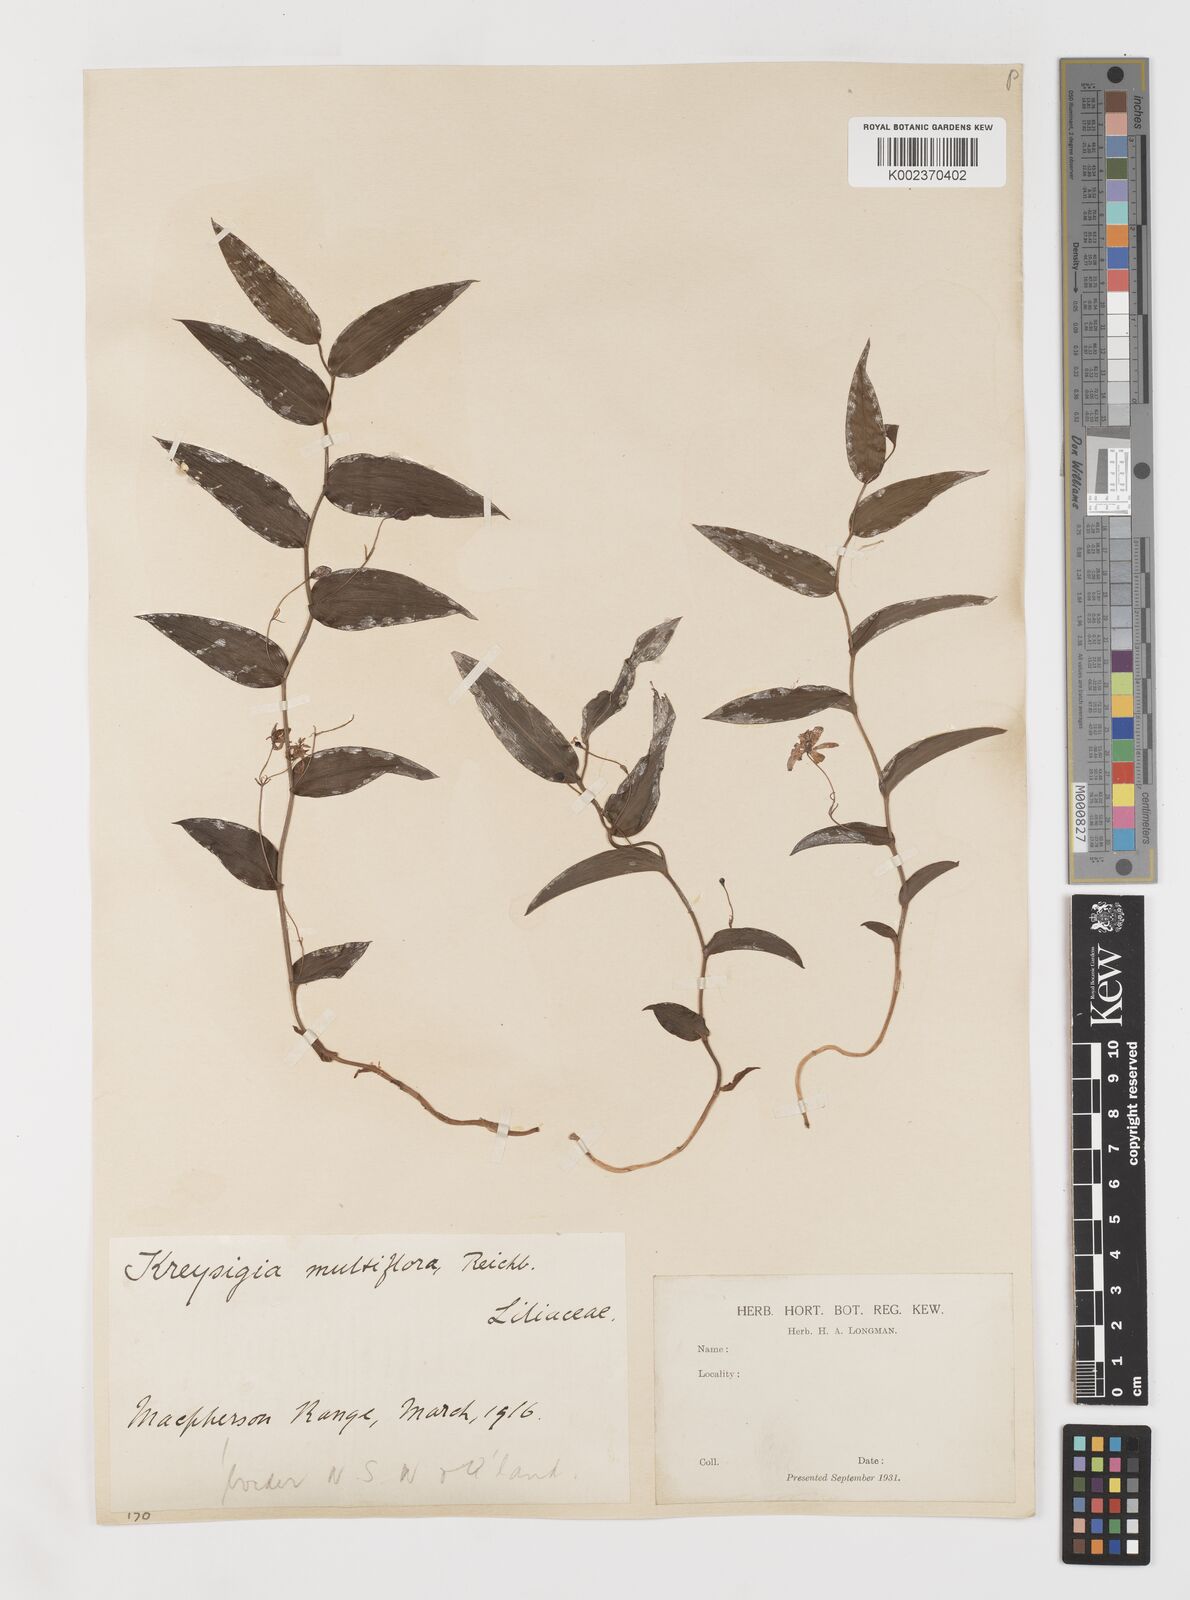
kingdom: Plantae
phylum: Tracheophyta
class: Liliopsida
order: Liliales
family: Colchicaceae
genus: Tripladenia
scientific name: Tripladenia
